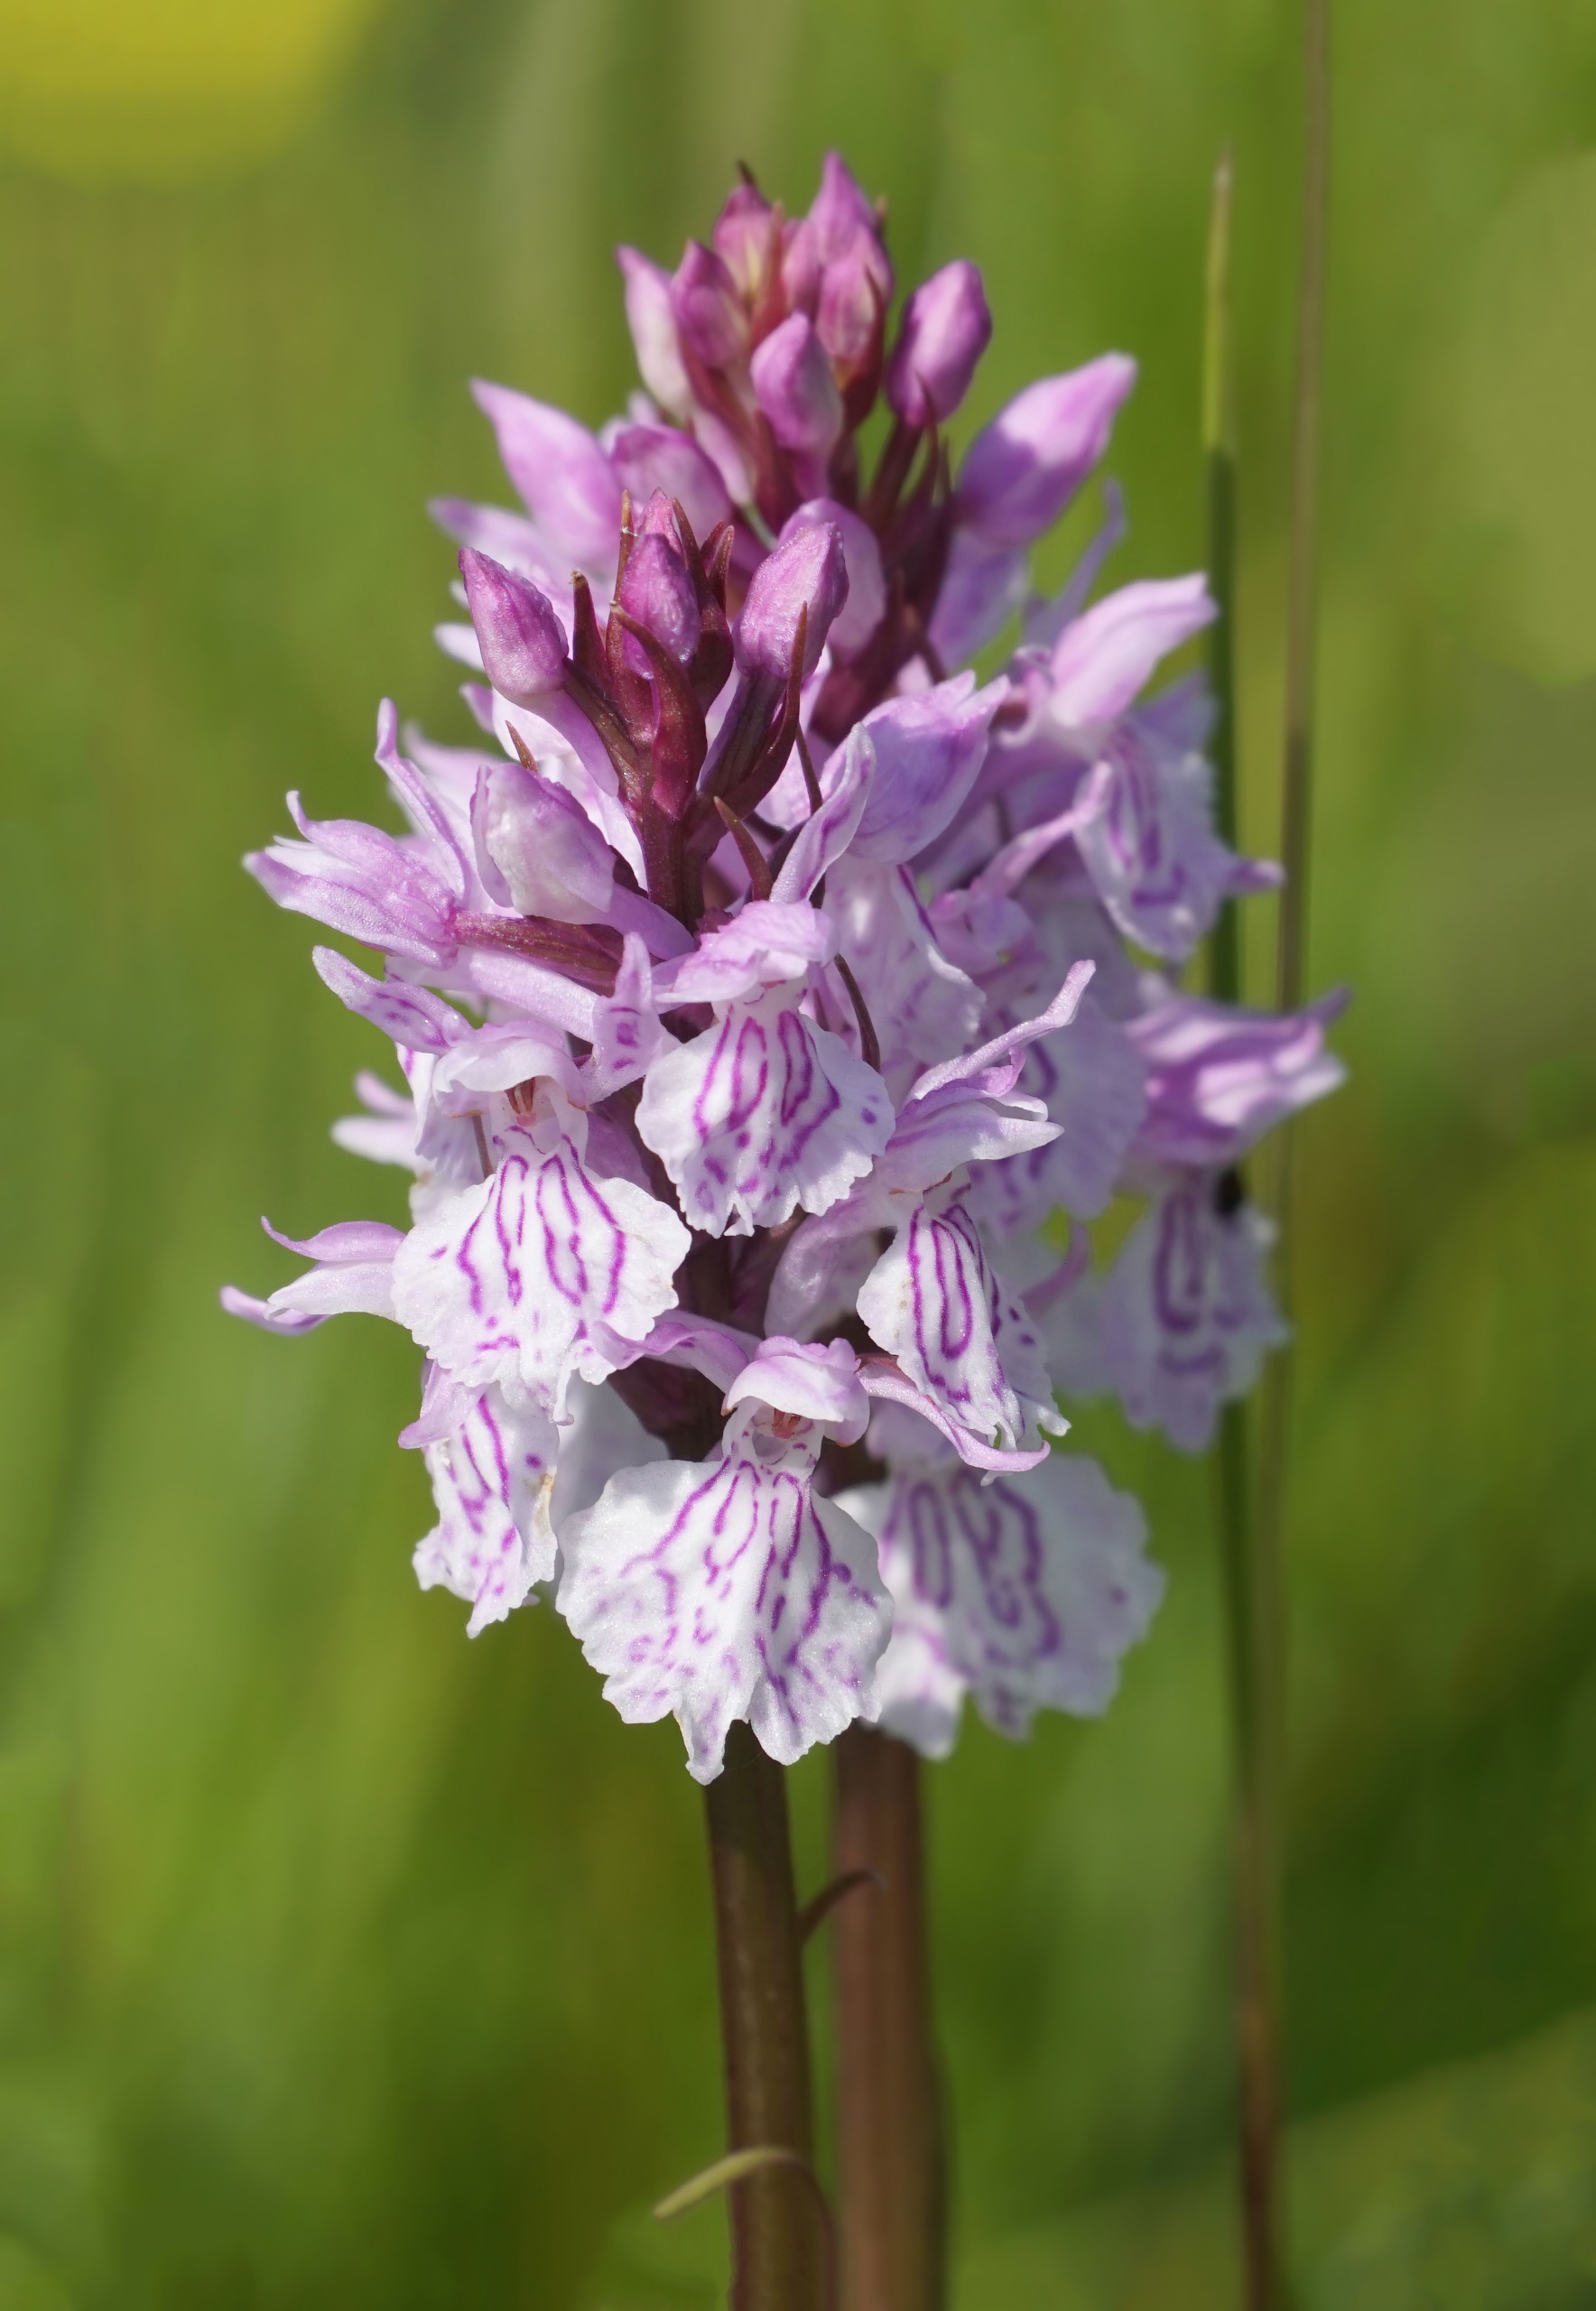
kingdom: Plantae
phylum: Tracheophyta
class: Liliopsida
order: Asparagales
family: Orchidaceae
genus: Dactylorhiza
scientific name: Dactylorhiza maculata
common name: Plettet gøgeurt
